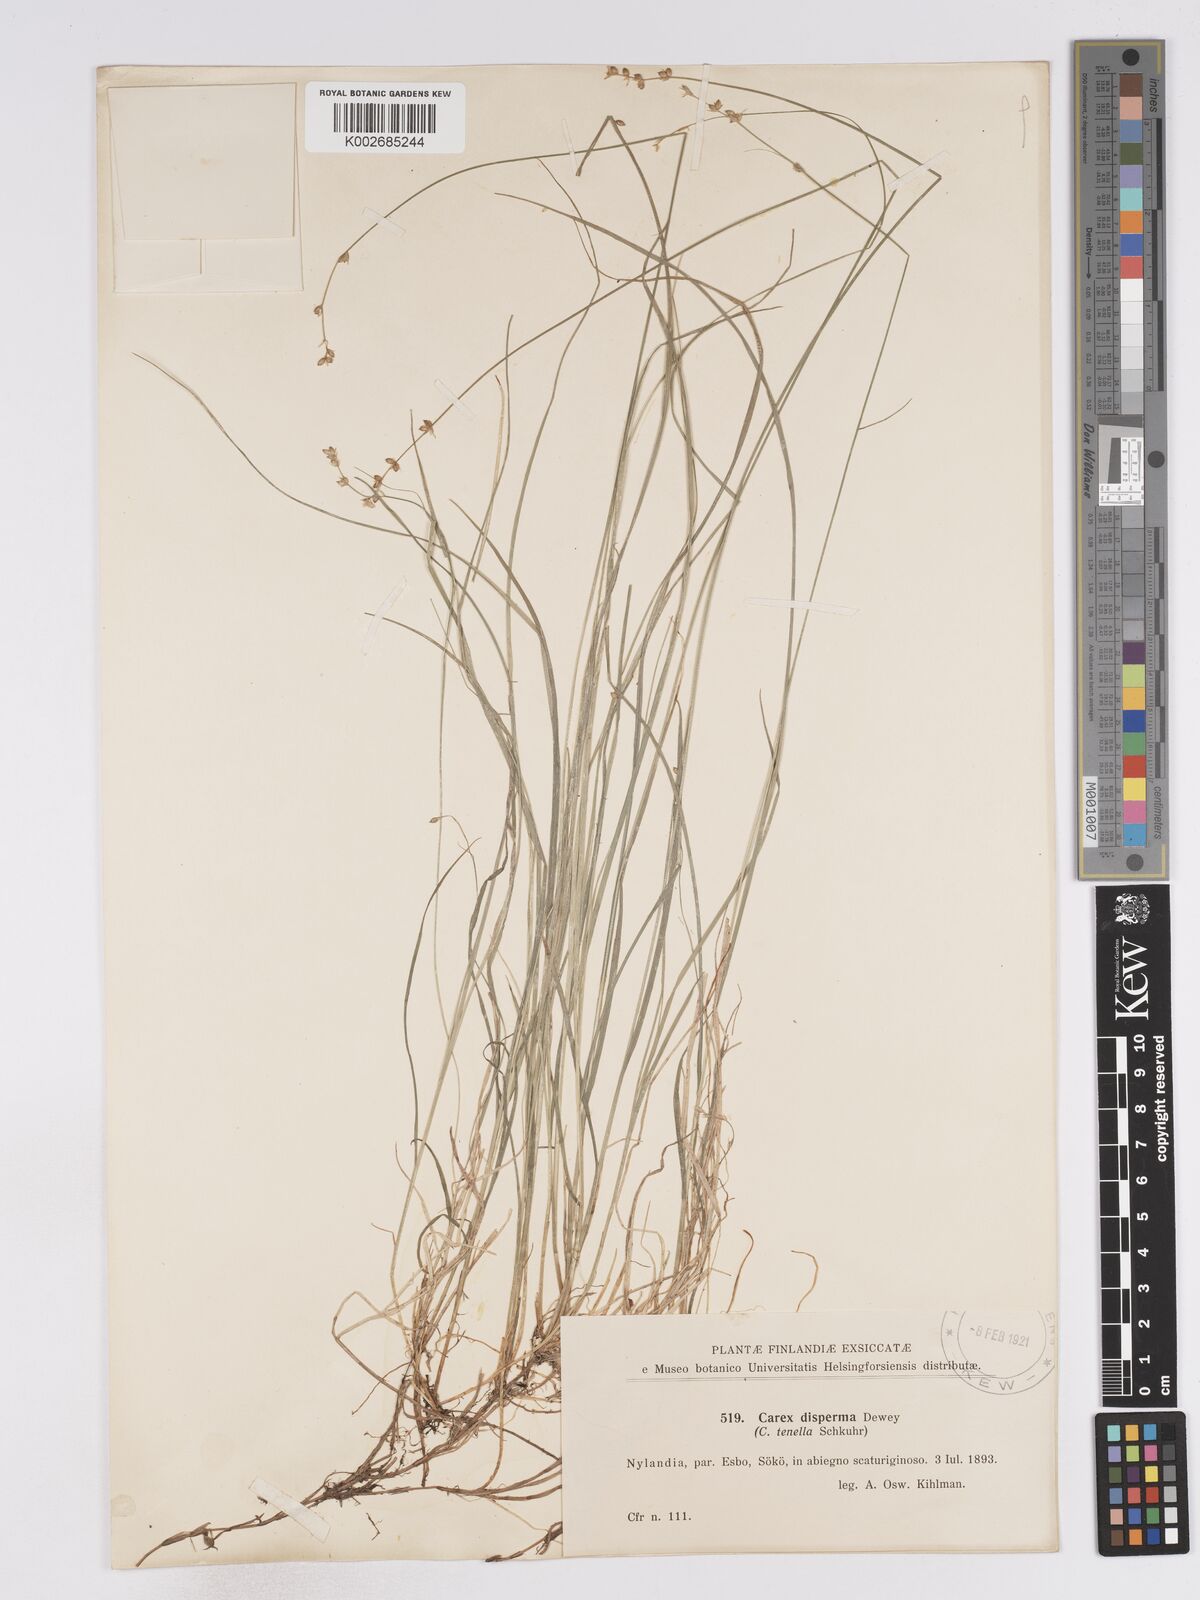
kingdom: Plantae
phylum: Tracheophyta
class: Liliopsida
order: Poales
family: Cyperaceae
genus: Carex
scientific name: Carex loliacea
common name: Ryegrass sedge
